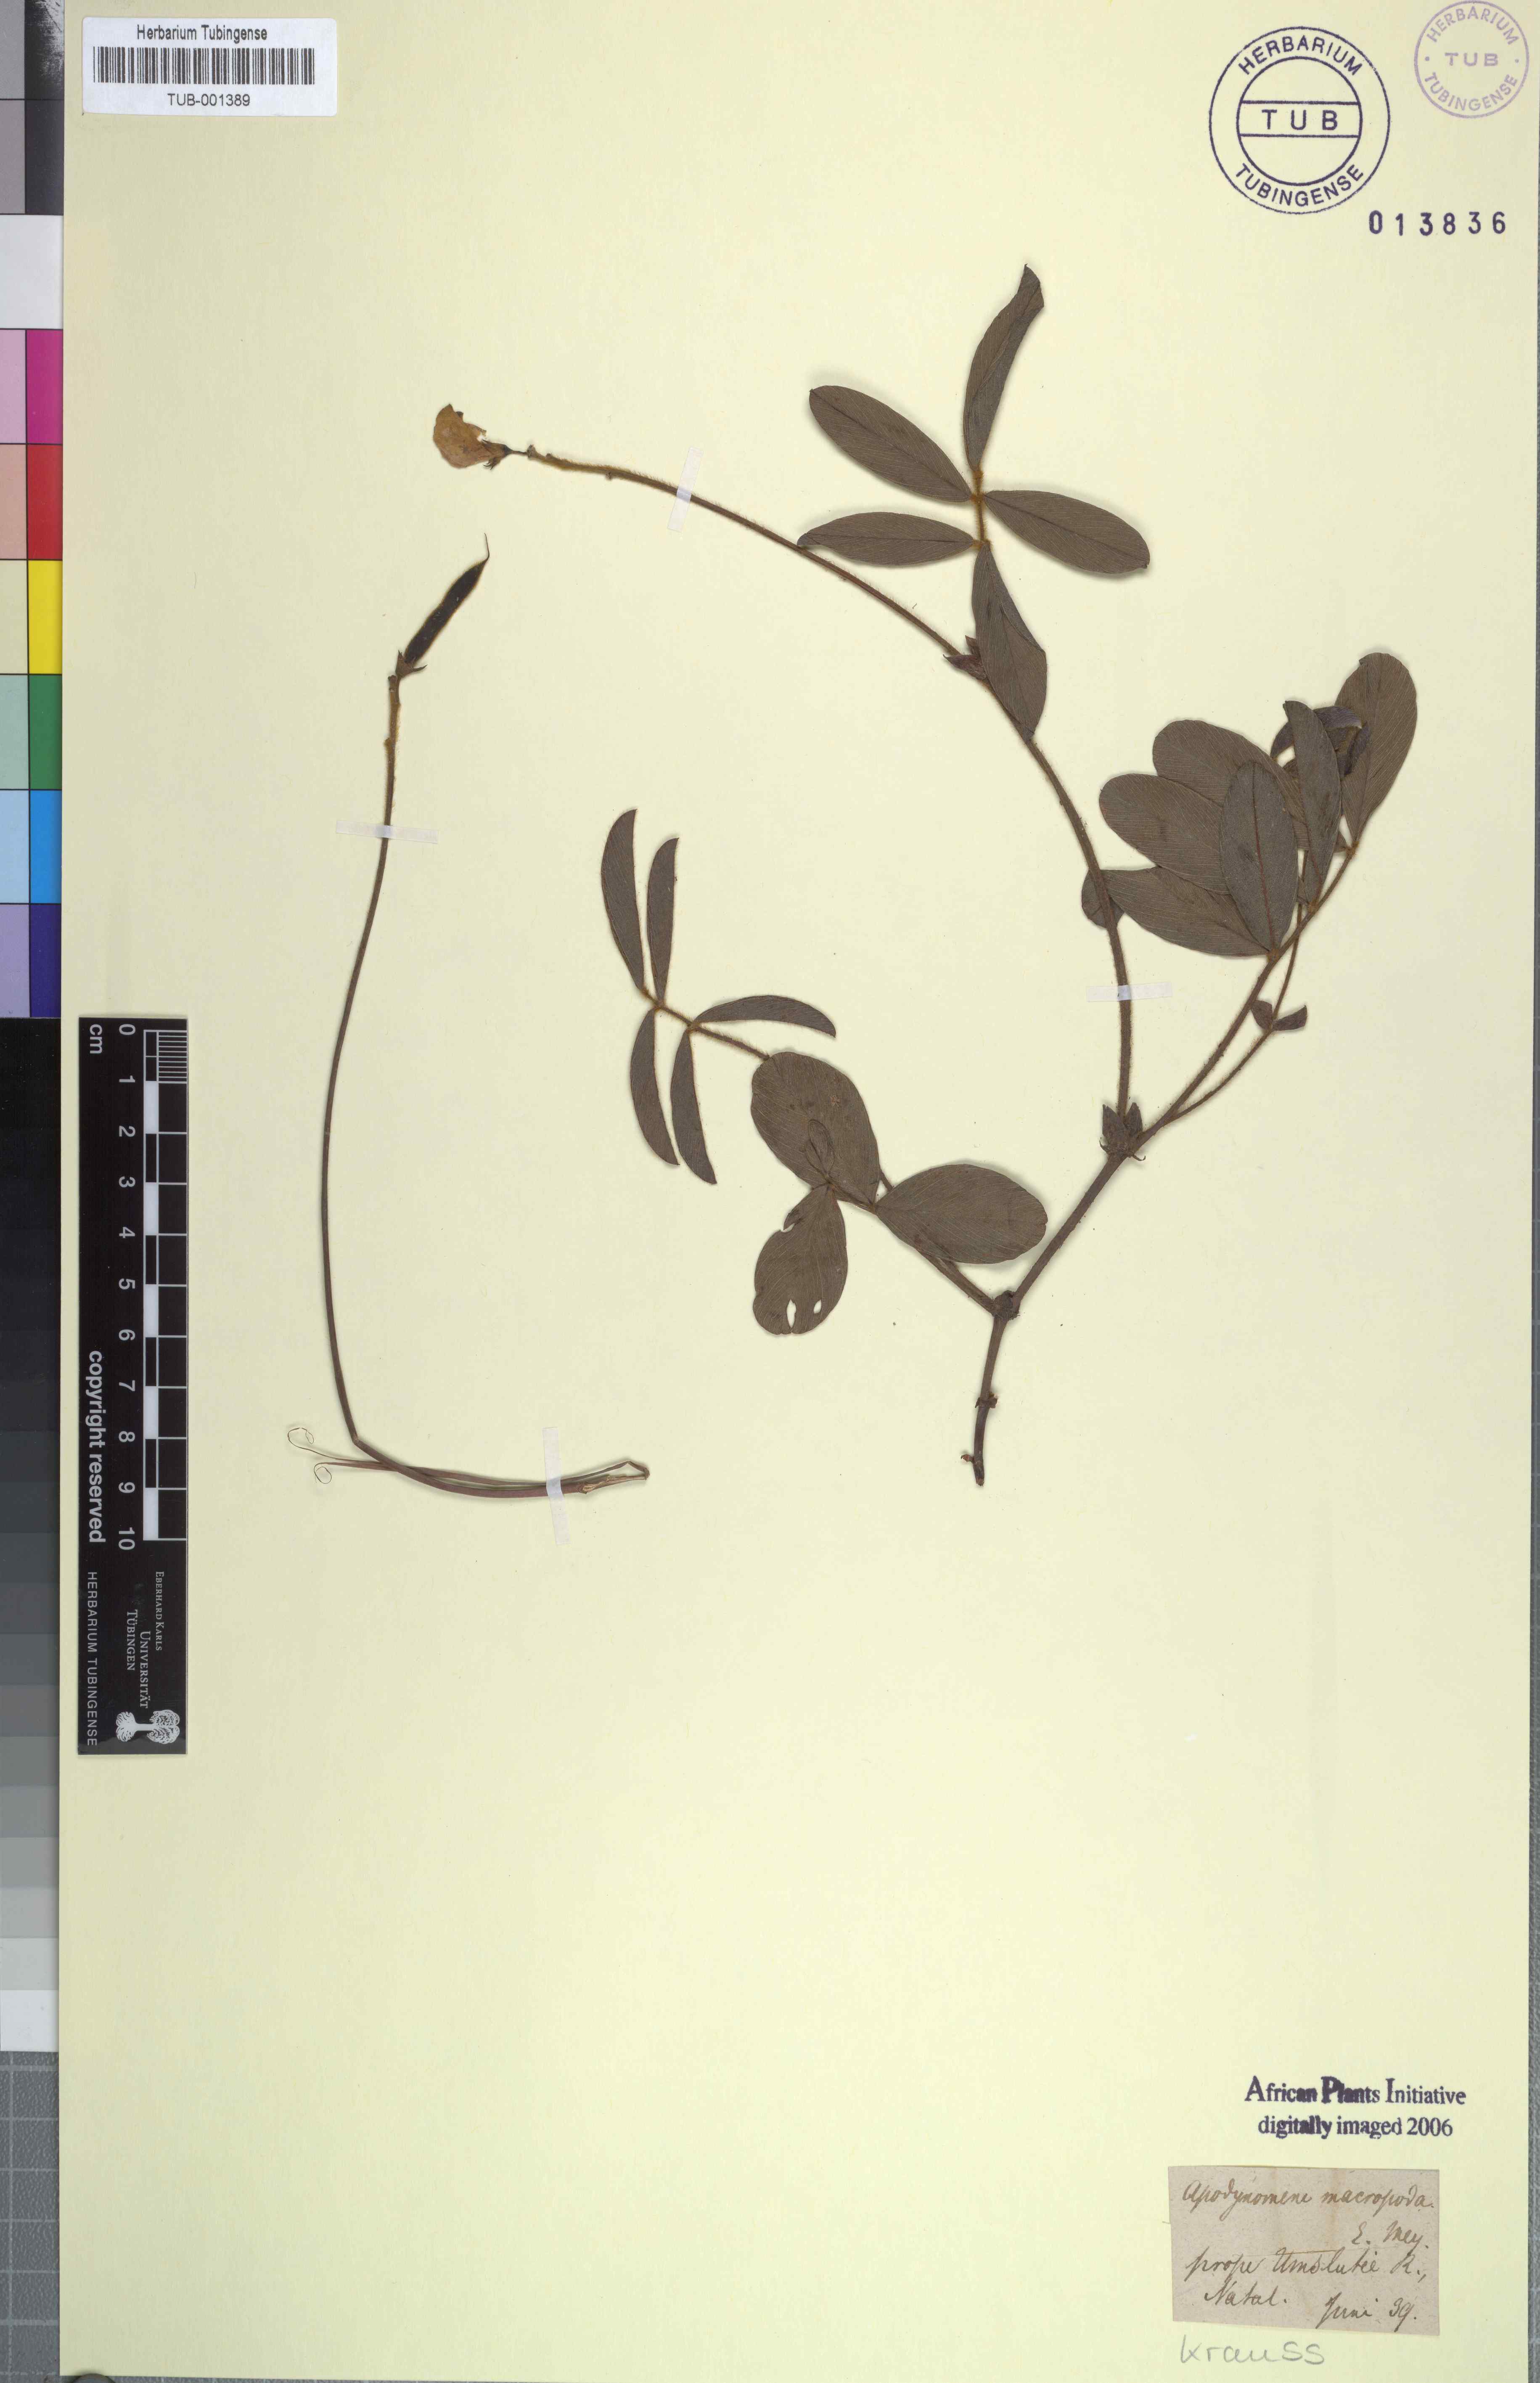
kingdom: Plantae
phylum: Tracheophyta
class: Magnoliopsida
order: Fabales
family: Fabaceae
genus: Tephrosia
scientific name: Tephrosia macropoda
